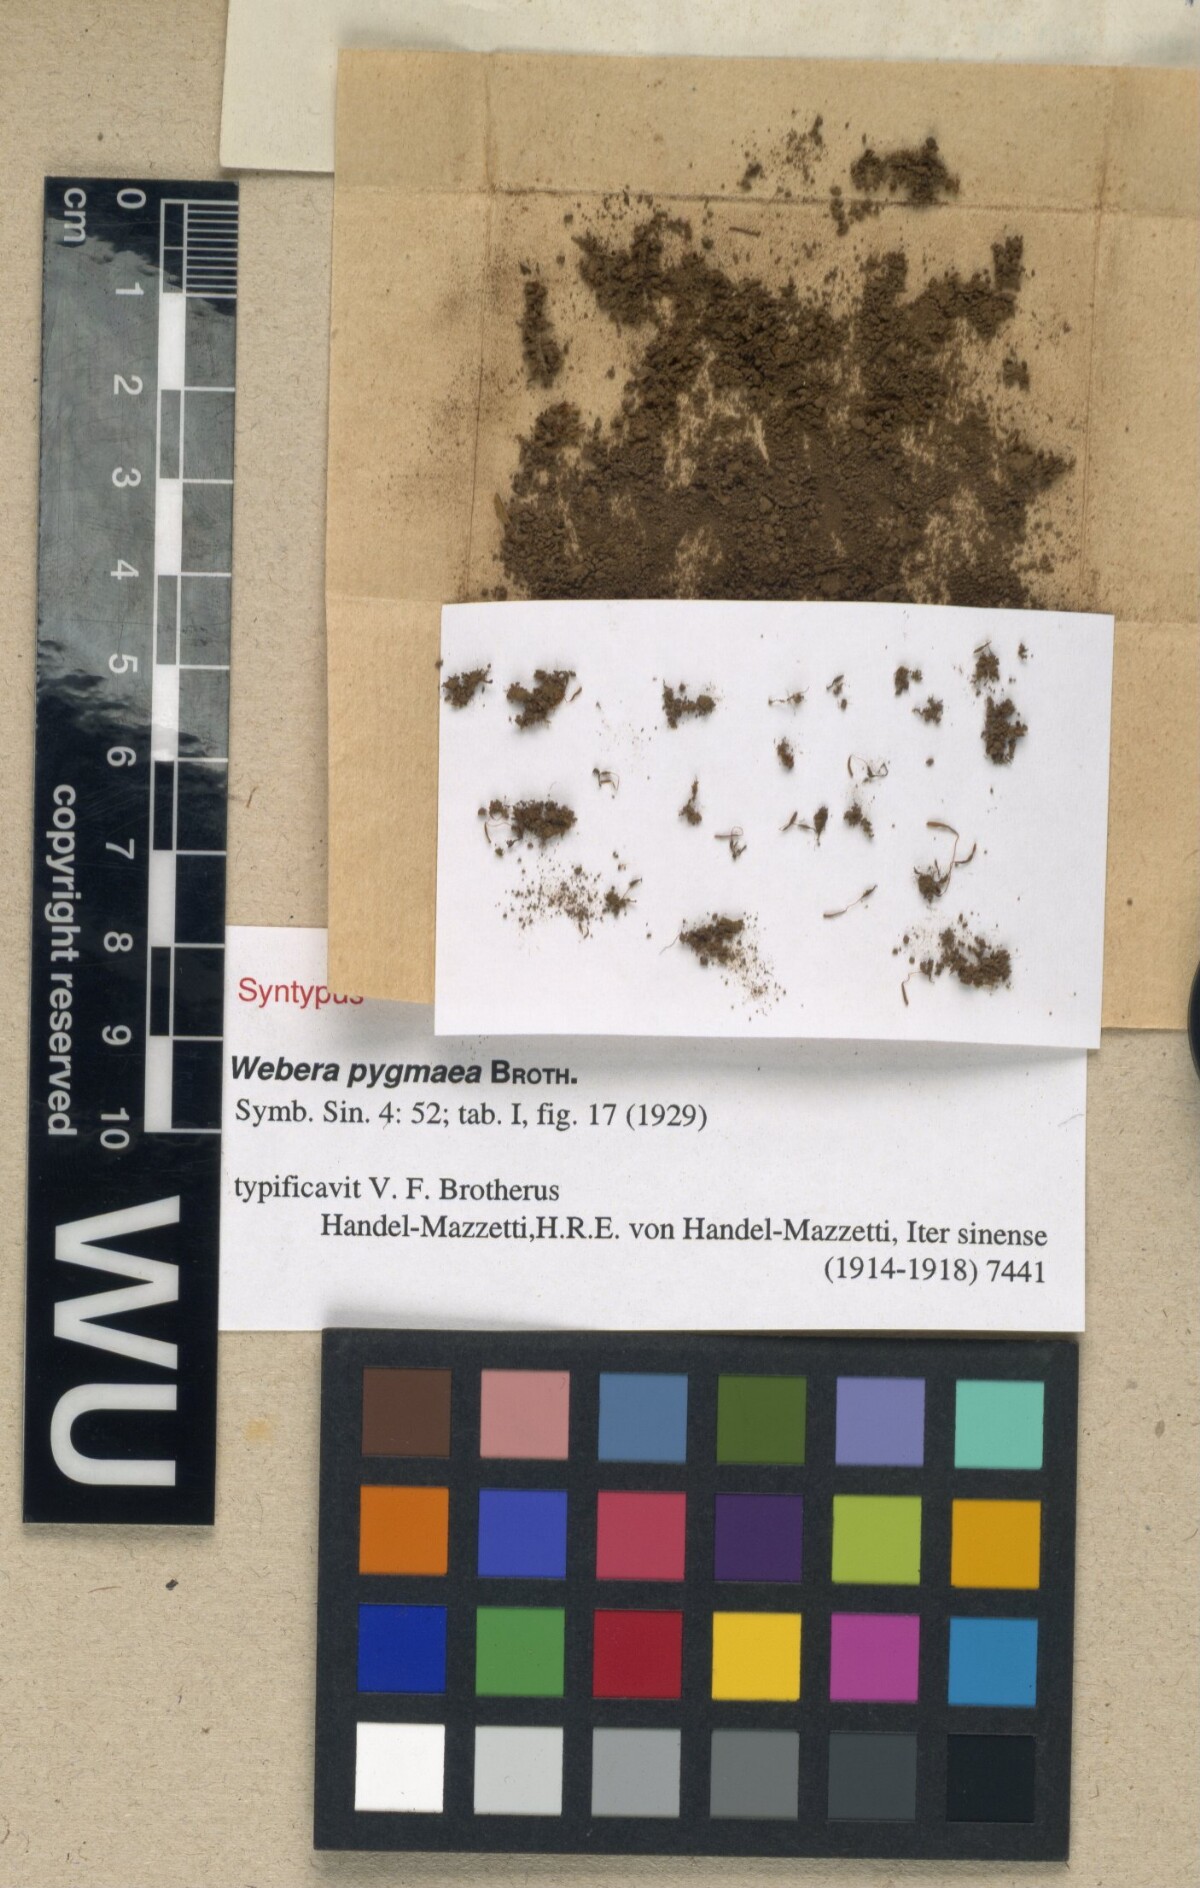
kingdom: Plantae
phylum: Bryophyta
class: Bryopsida
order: Bryales
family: Mniaceae
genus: Pohlia
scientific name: Pohlia elongata
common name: Long-fruited thread-moss
